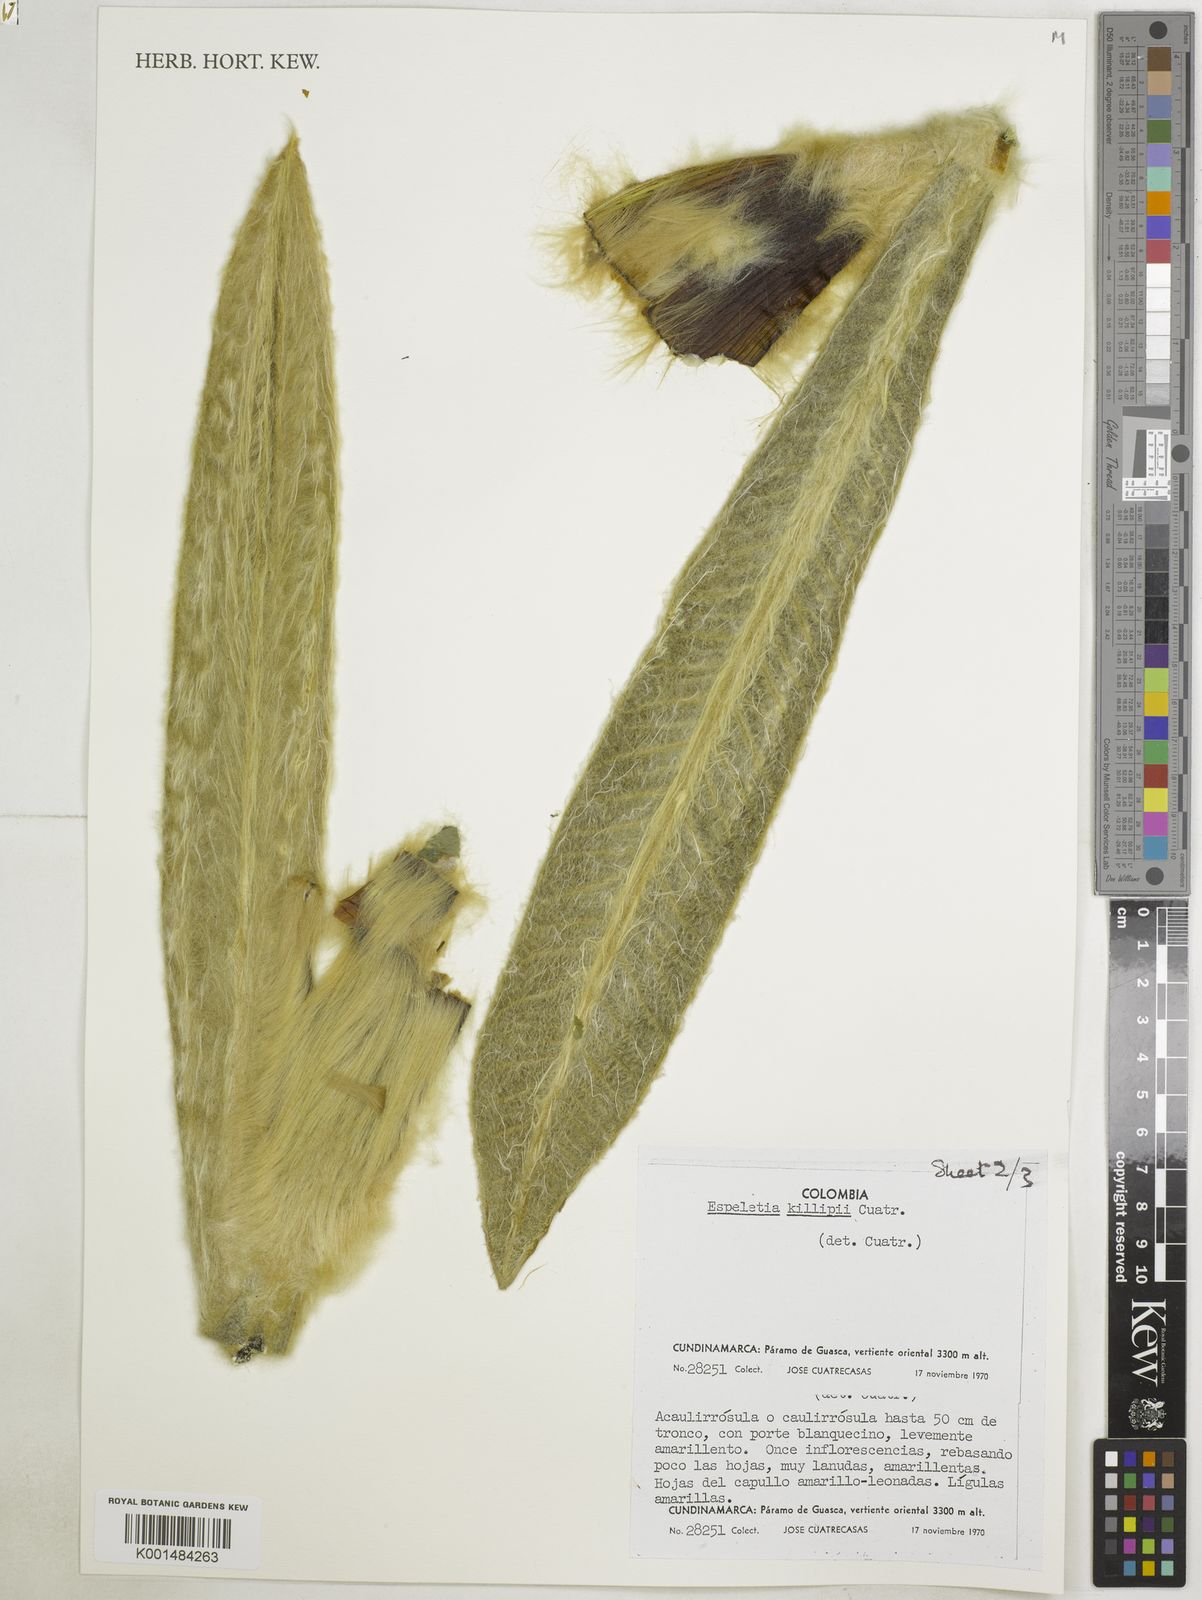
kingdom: Plantae
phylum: Tracheophyta
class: Magnoliopsida
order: Asterales
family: Asteraceae
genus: Espeletia
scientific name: Espeletia killipii
